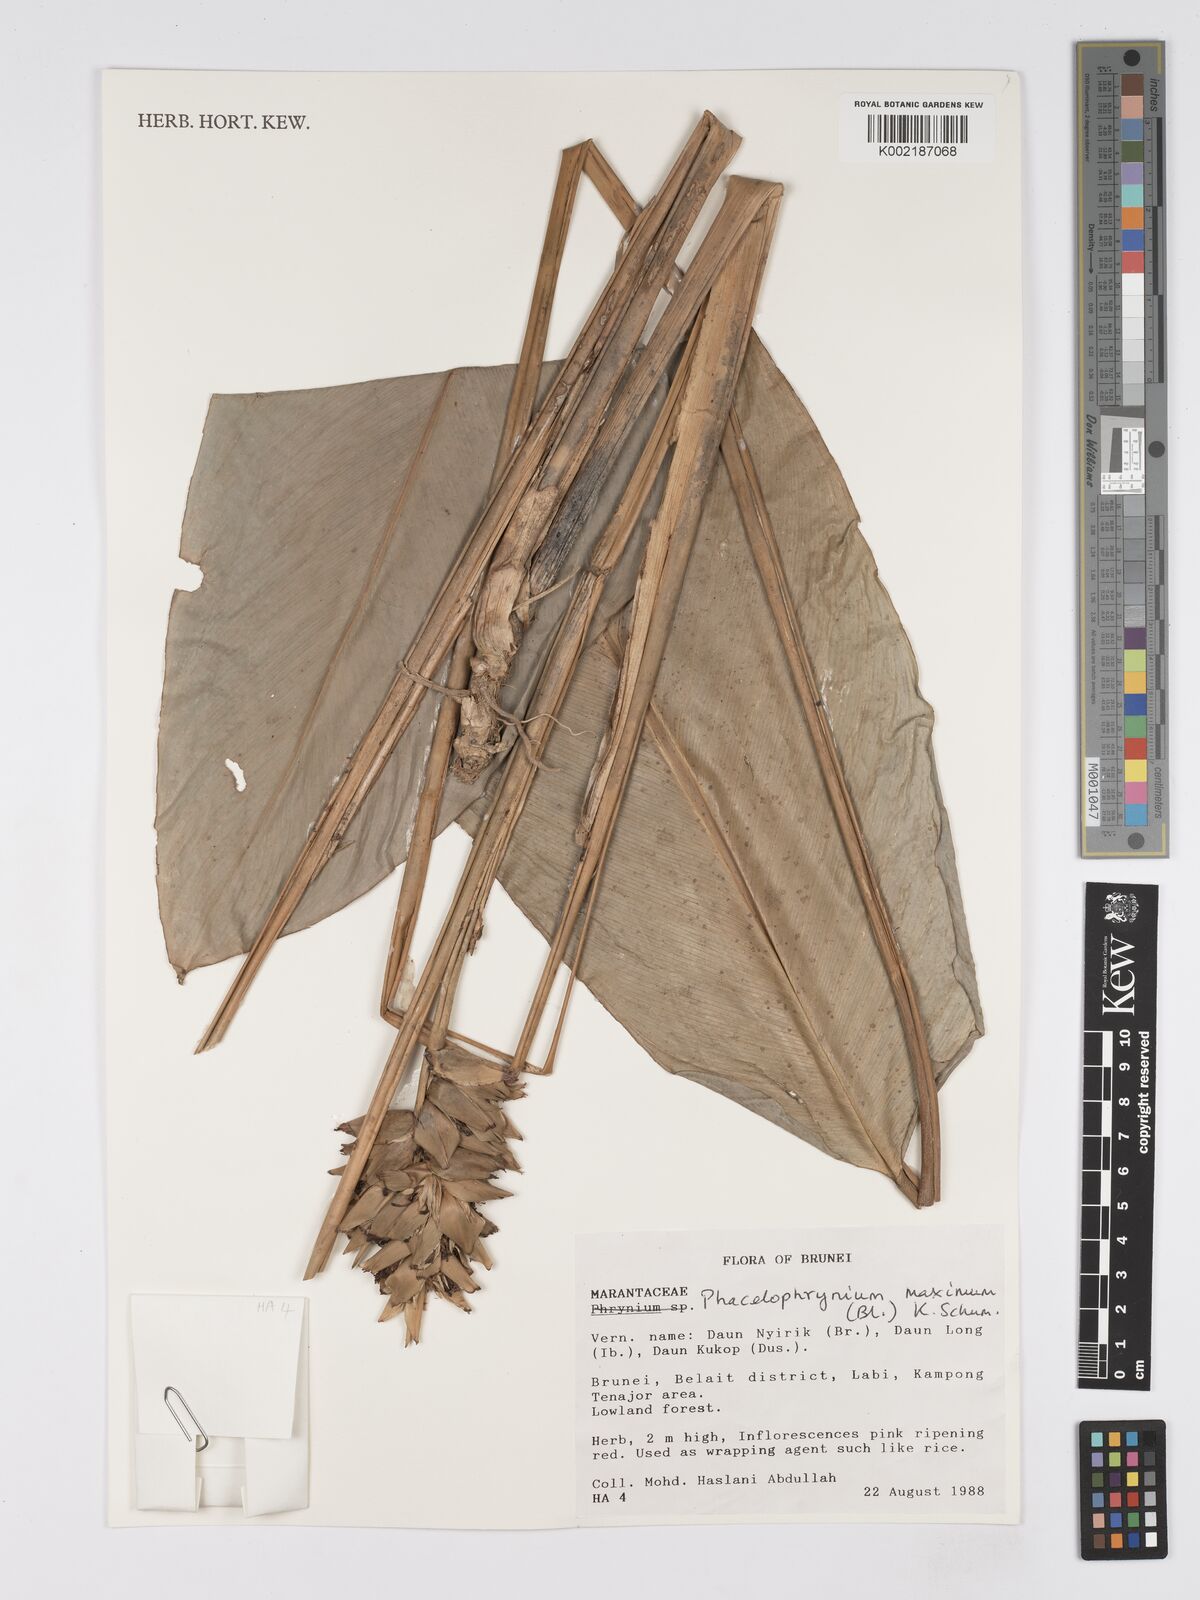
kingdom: Plantae
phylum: Tracheophyta
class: Liliopsida
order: Zingiberales
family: Marantaceae
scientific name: Marantaceae
